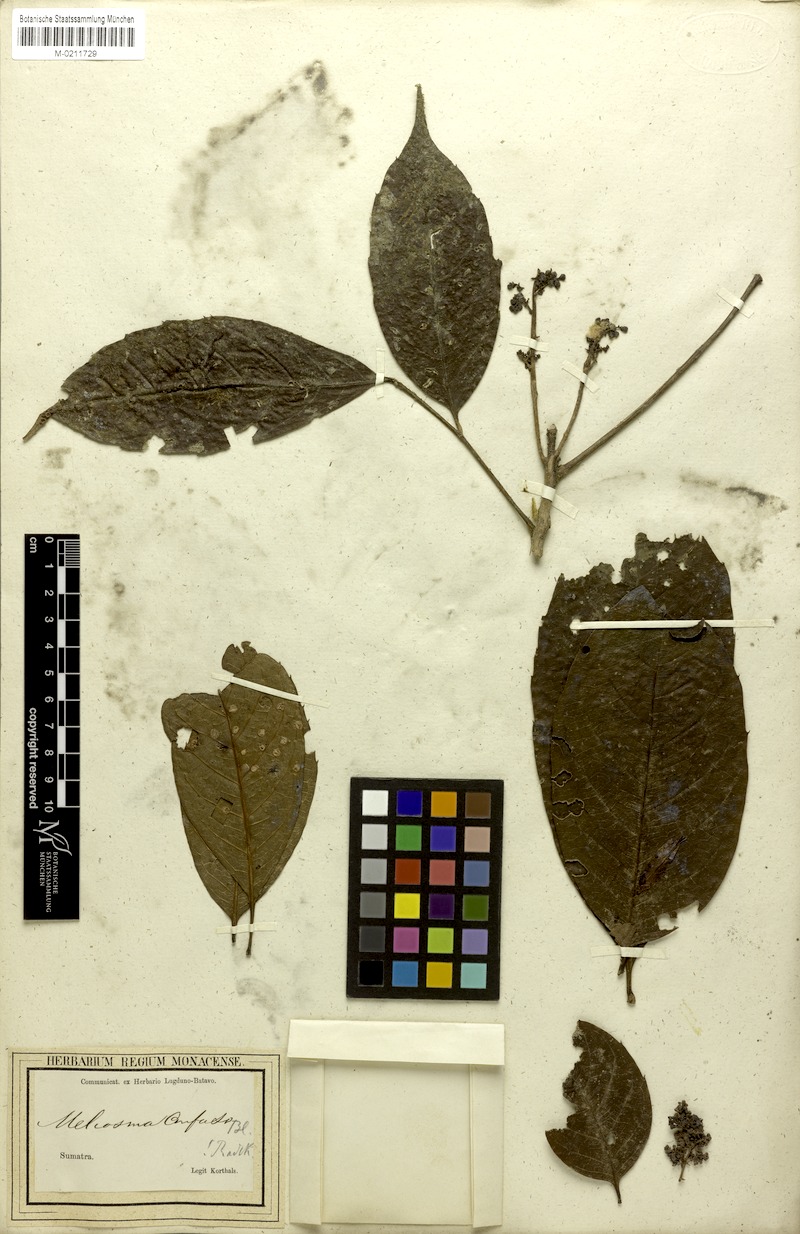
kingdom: Plantae
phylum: Tracheophyta
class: Magnoliopsida
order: Proteales
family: Sabiaceae
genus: Meliosma
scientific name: Meliosma sumatrana
